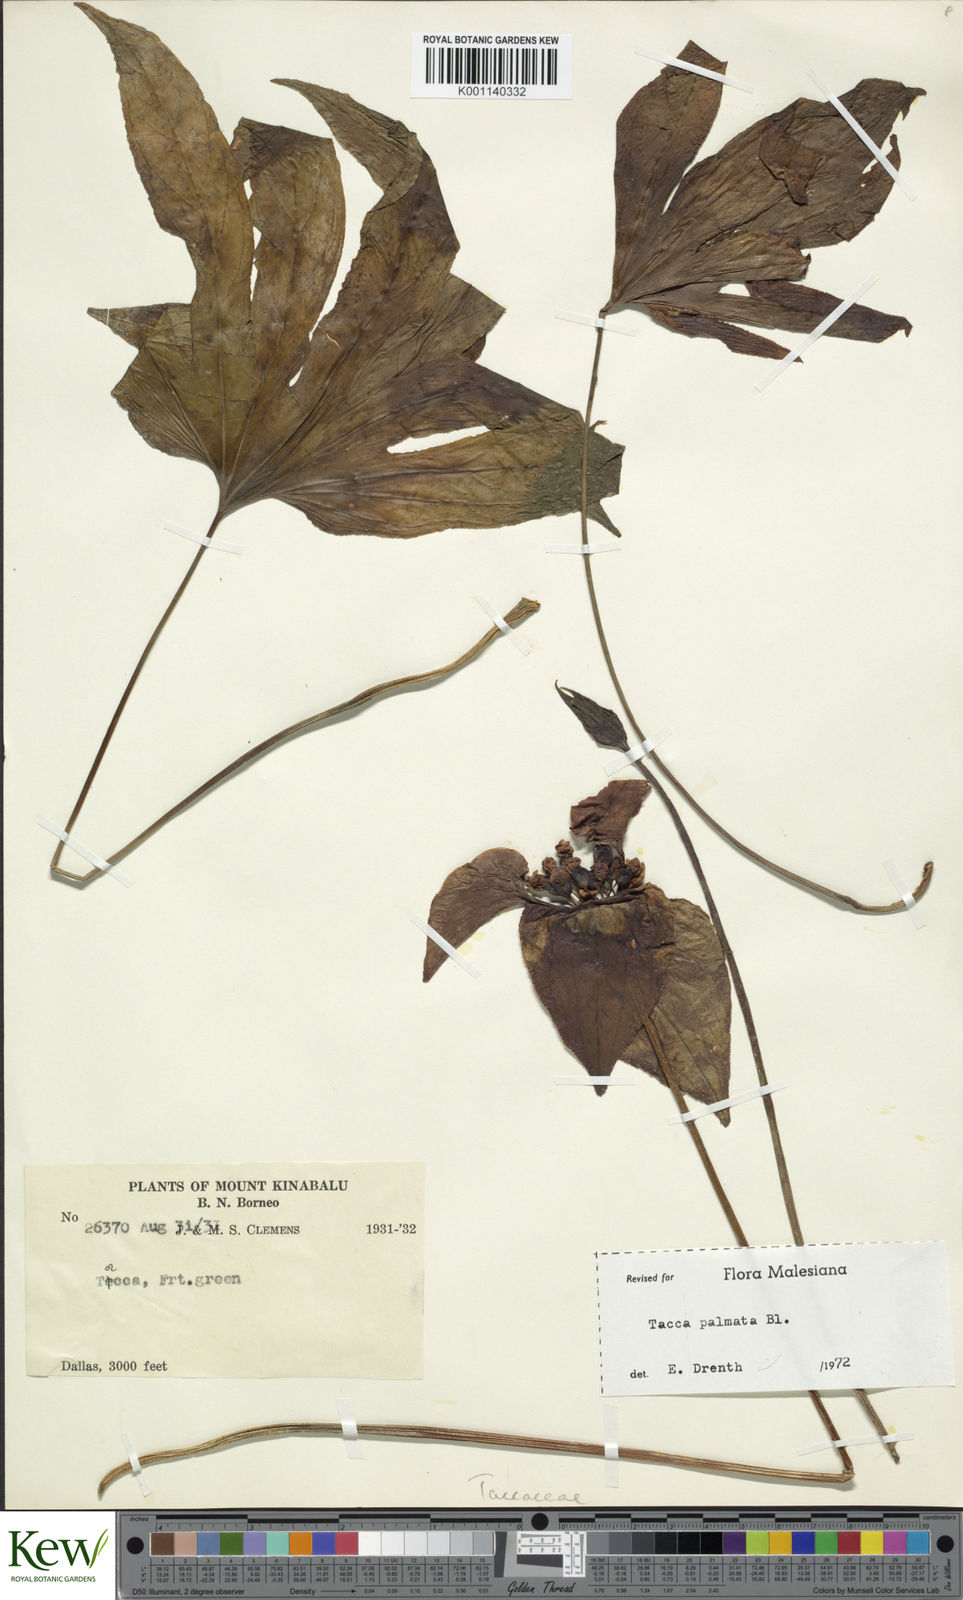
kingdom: Plantae
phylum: Tracheophyta
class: Liliopsida
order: Dioscoreales
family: Dioscoreaceae
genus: Tacca
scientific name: Tacca palmata
